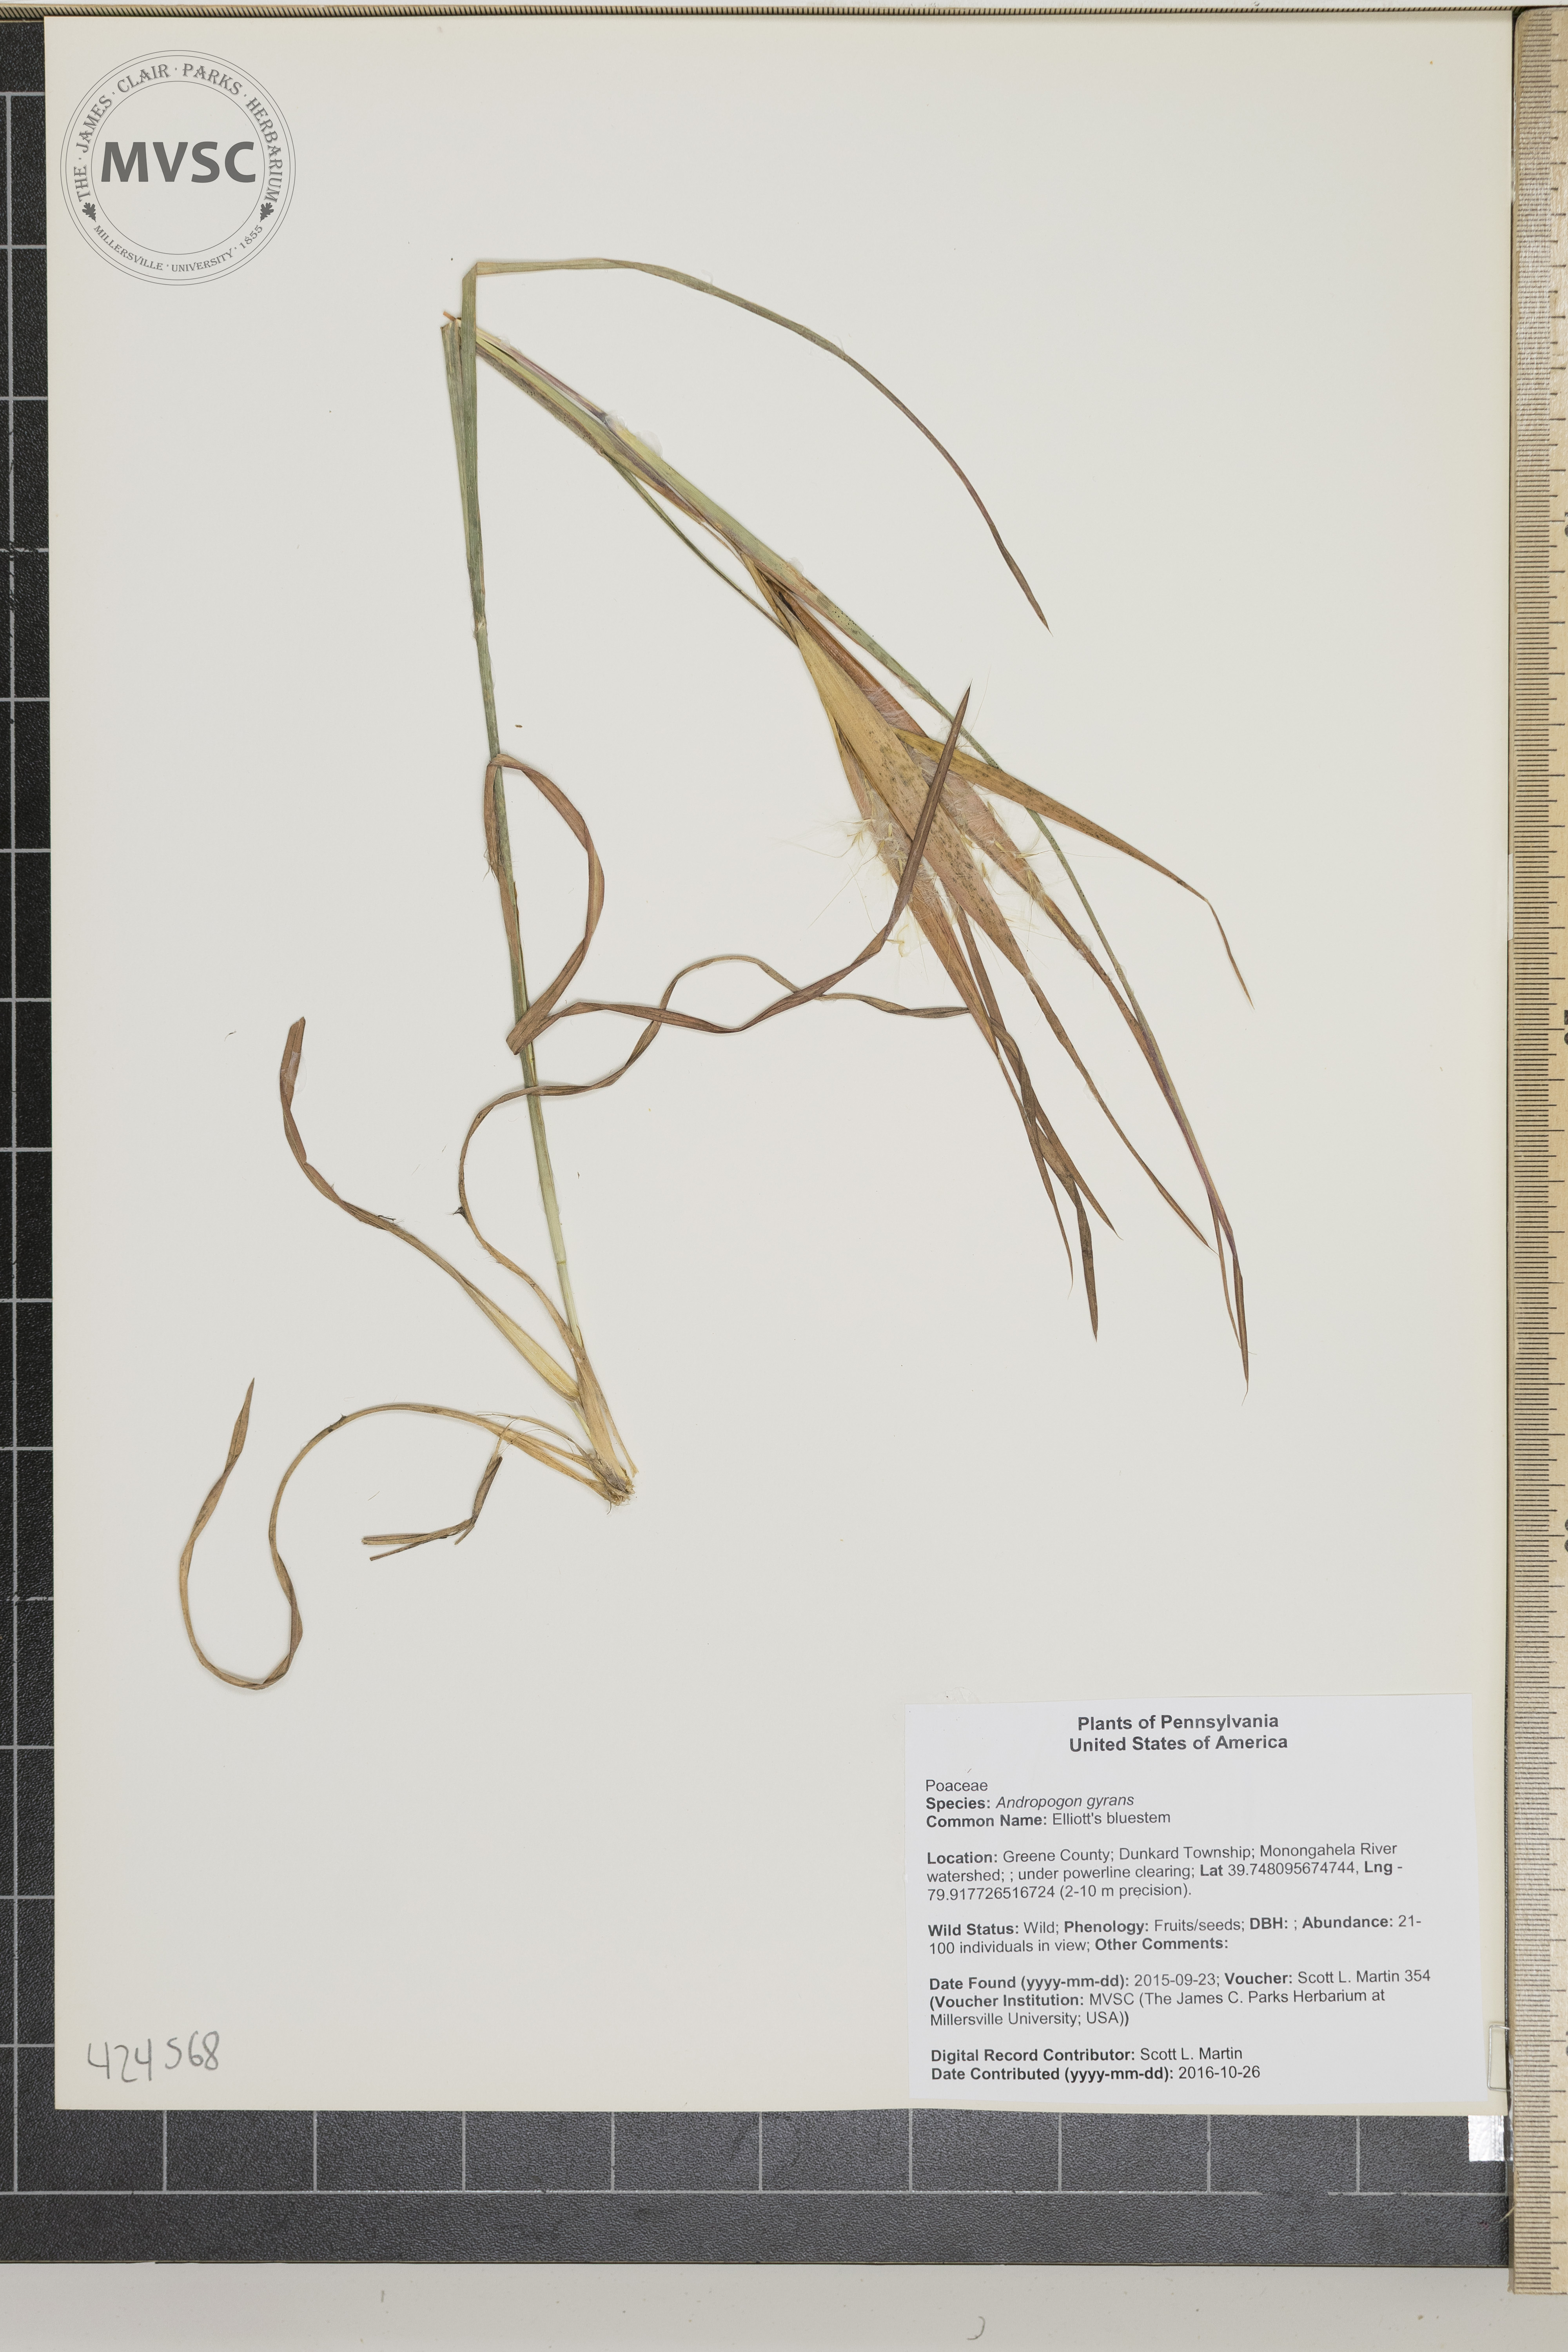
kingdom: Plantae
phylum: Tracheophyta
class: Liliopsida
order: Poales
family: Poaceae
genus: Andropogon
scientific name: Andropogon gyrans
